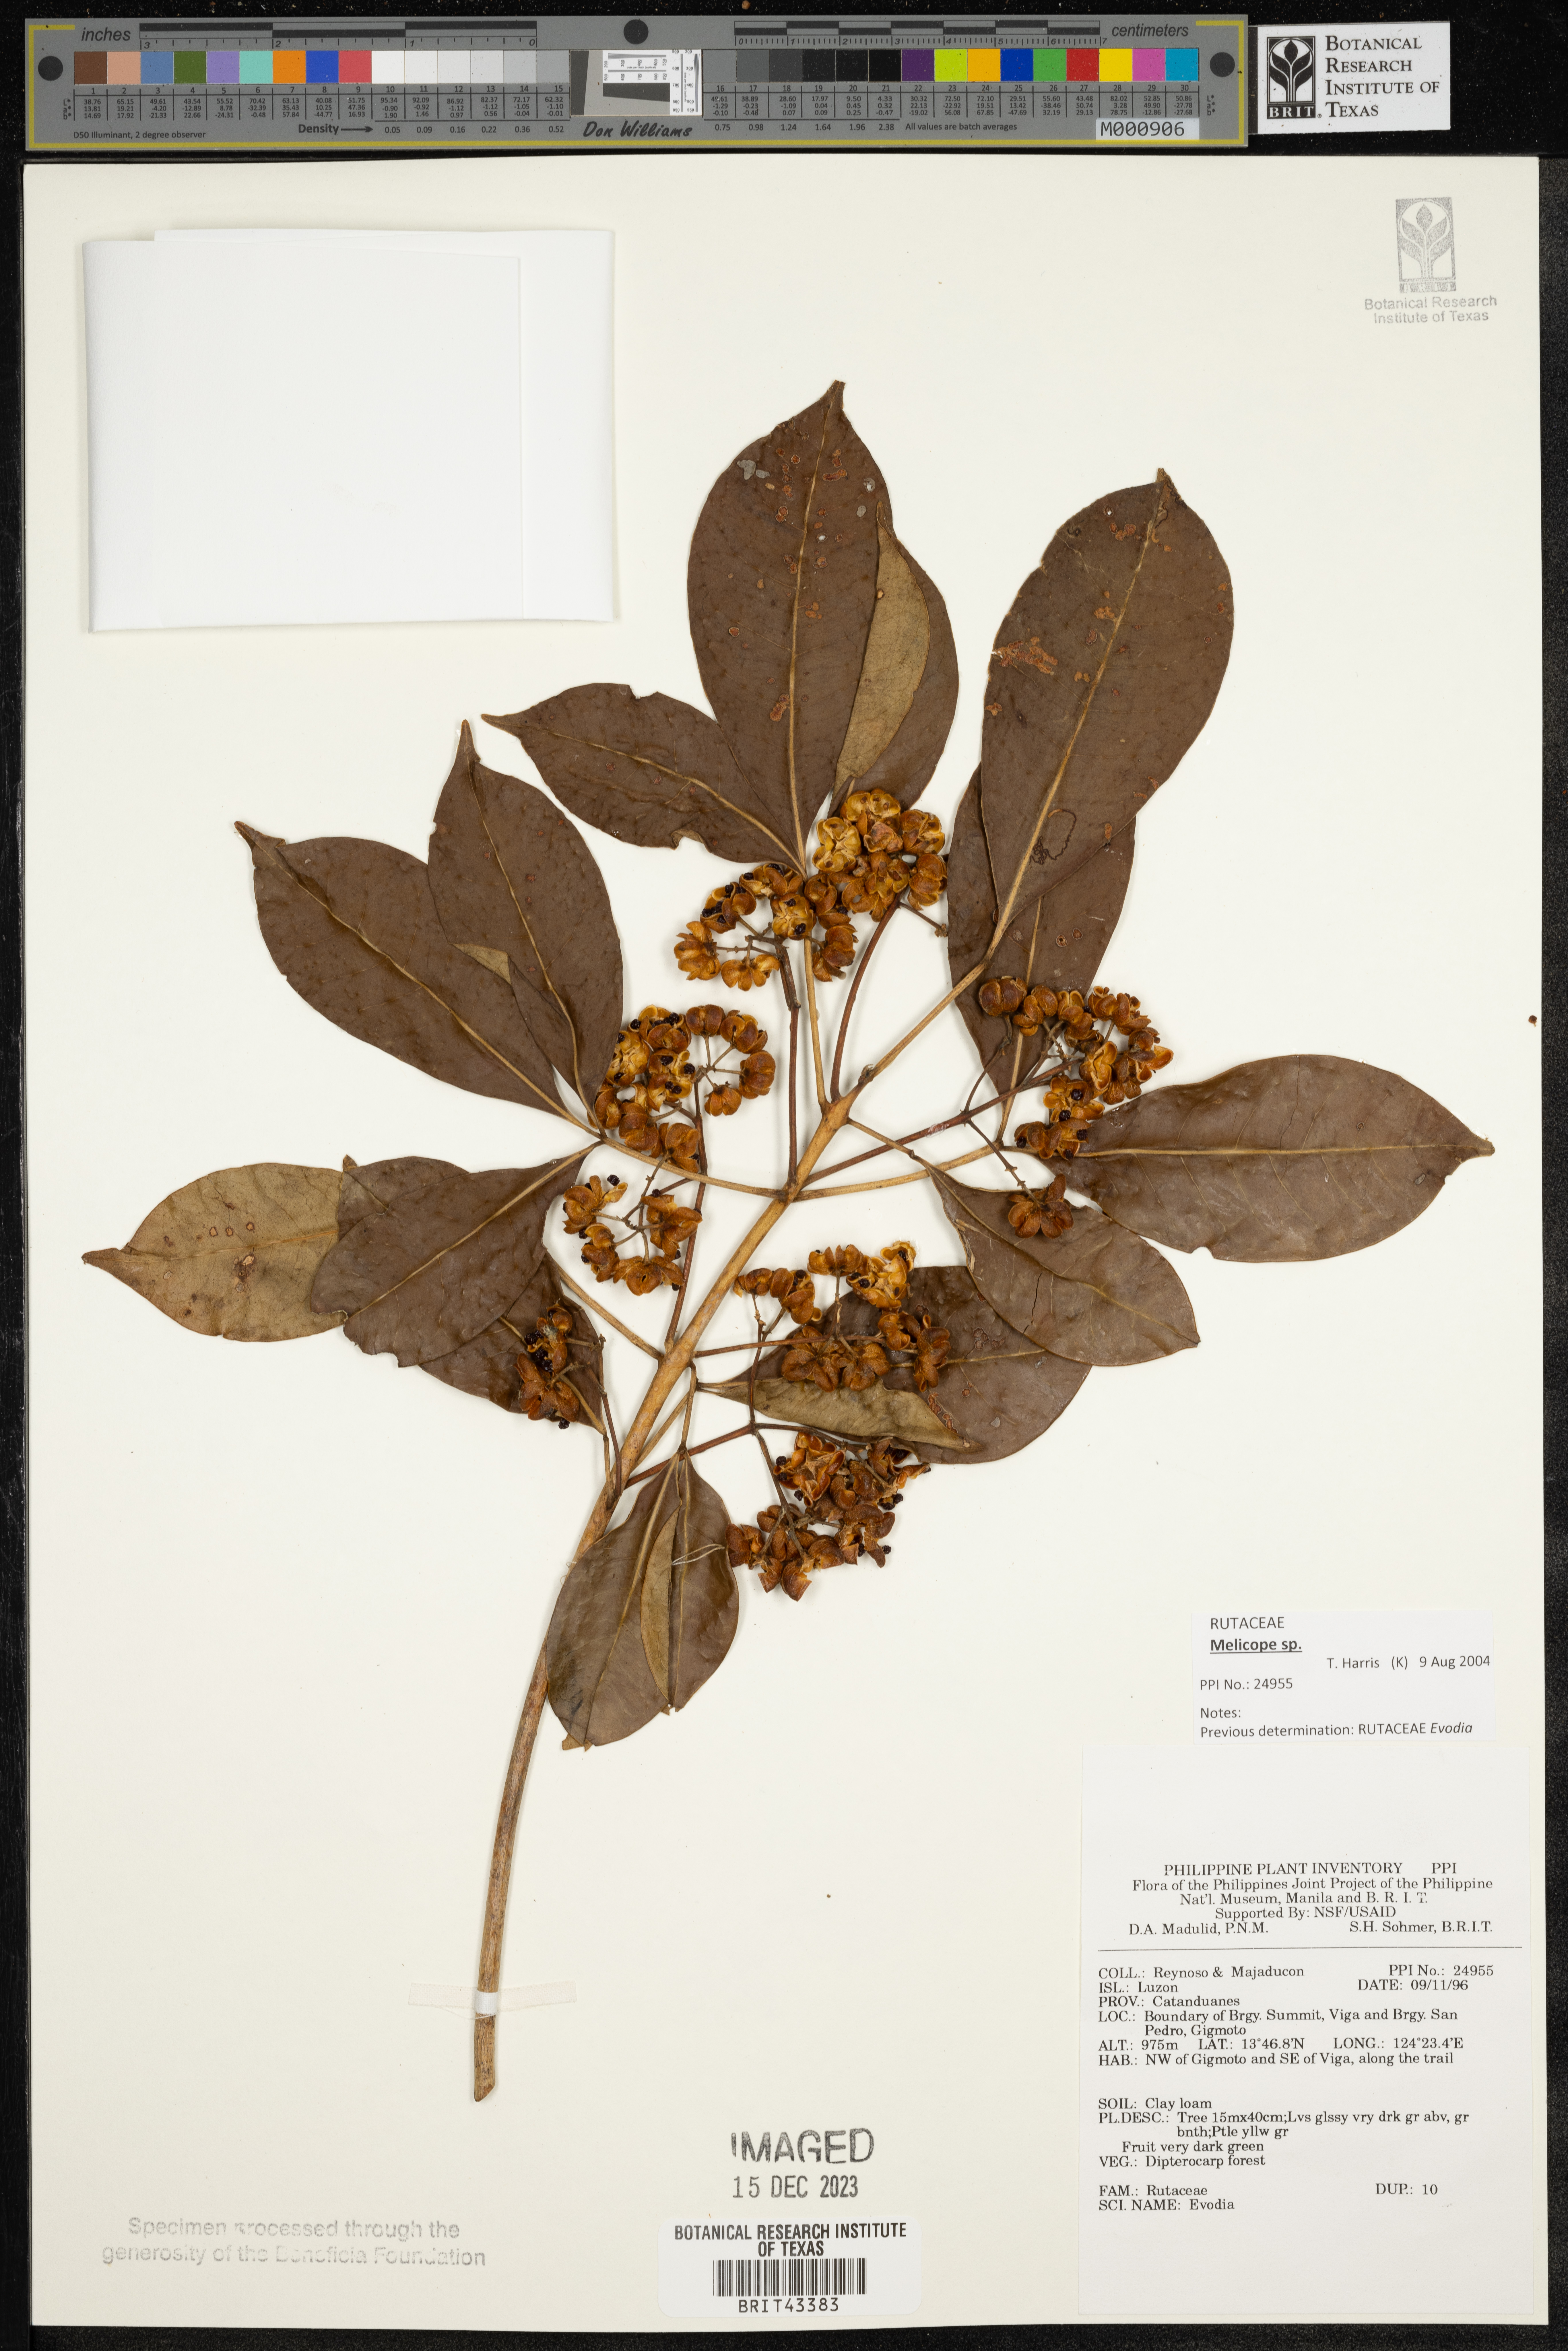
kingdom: Plantae
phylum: Tracheophyta
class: Magnoliopsida
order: Sapindales
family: Rutaceae
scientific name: Rutaceae
